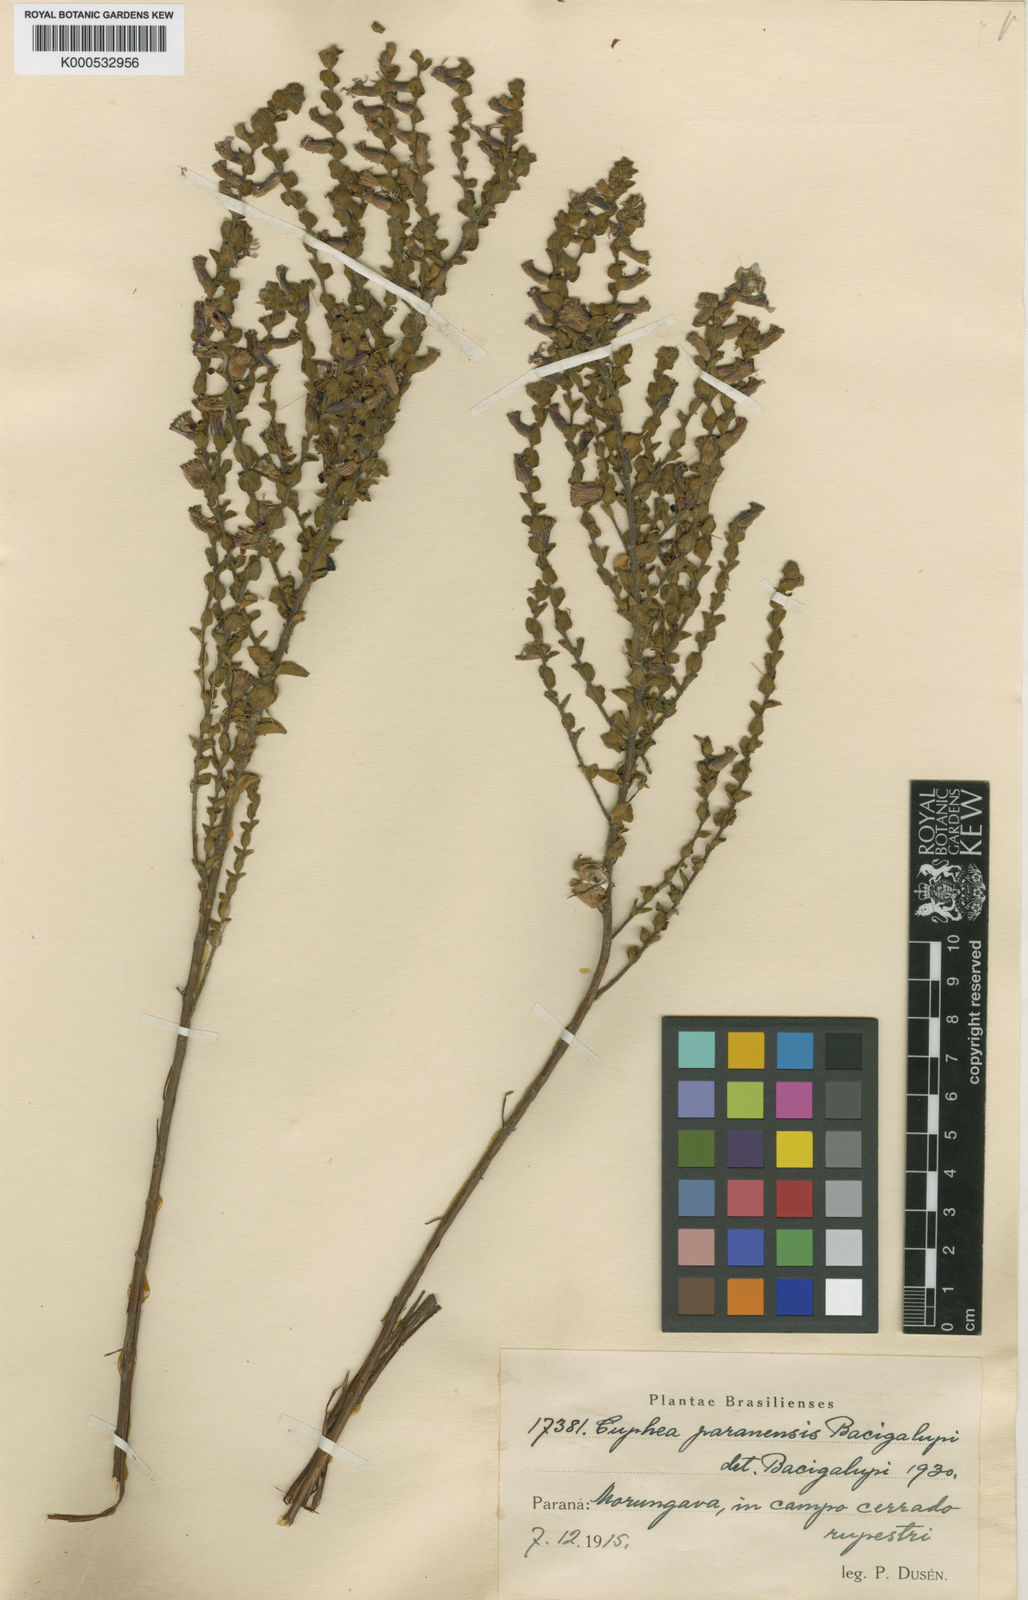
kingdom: Plantae
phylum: Tracheophyta
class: Magnoliopsida
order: Myrtales
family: Lythraceae
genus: Cuphea
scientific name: Cuphea paranensis
